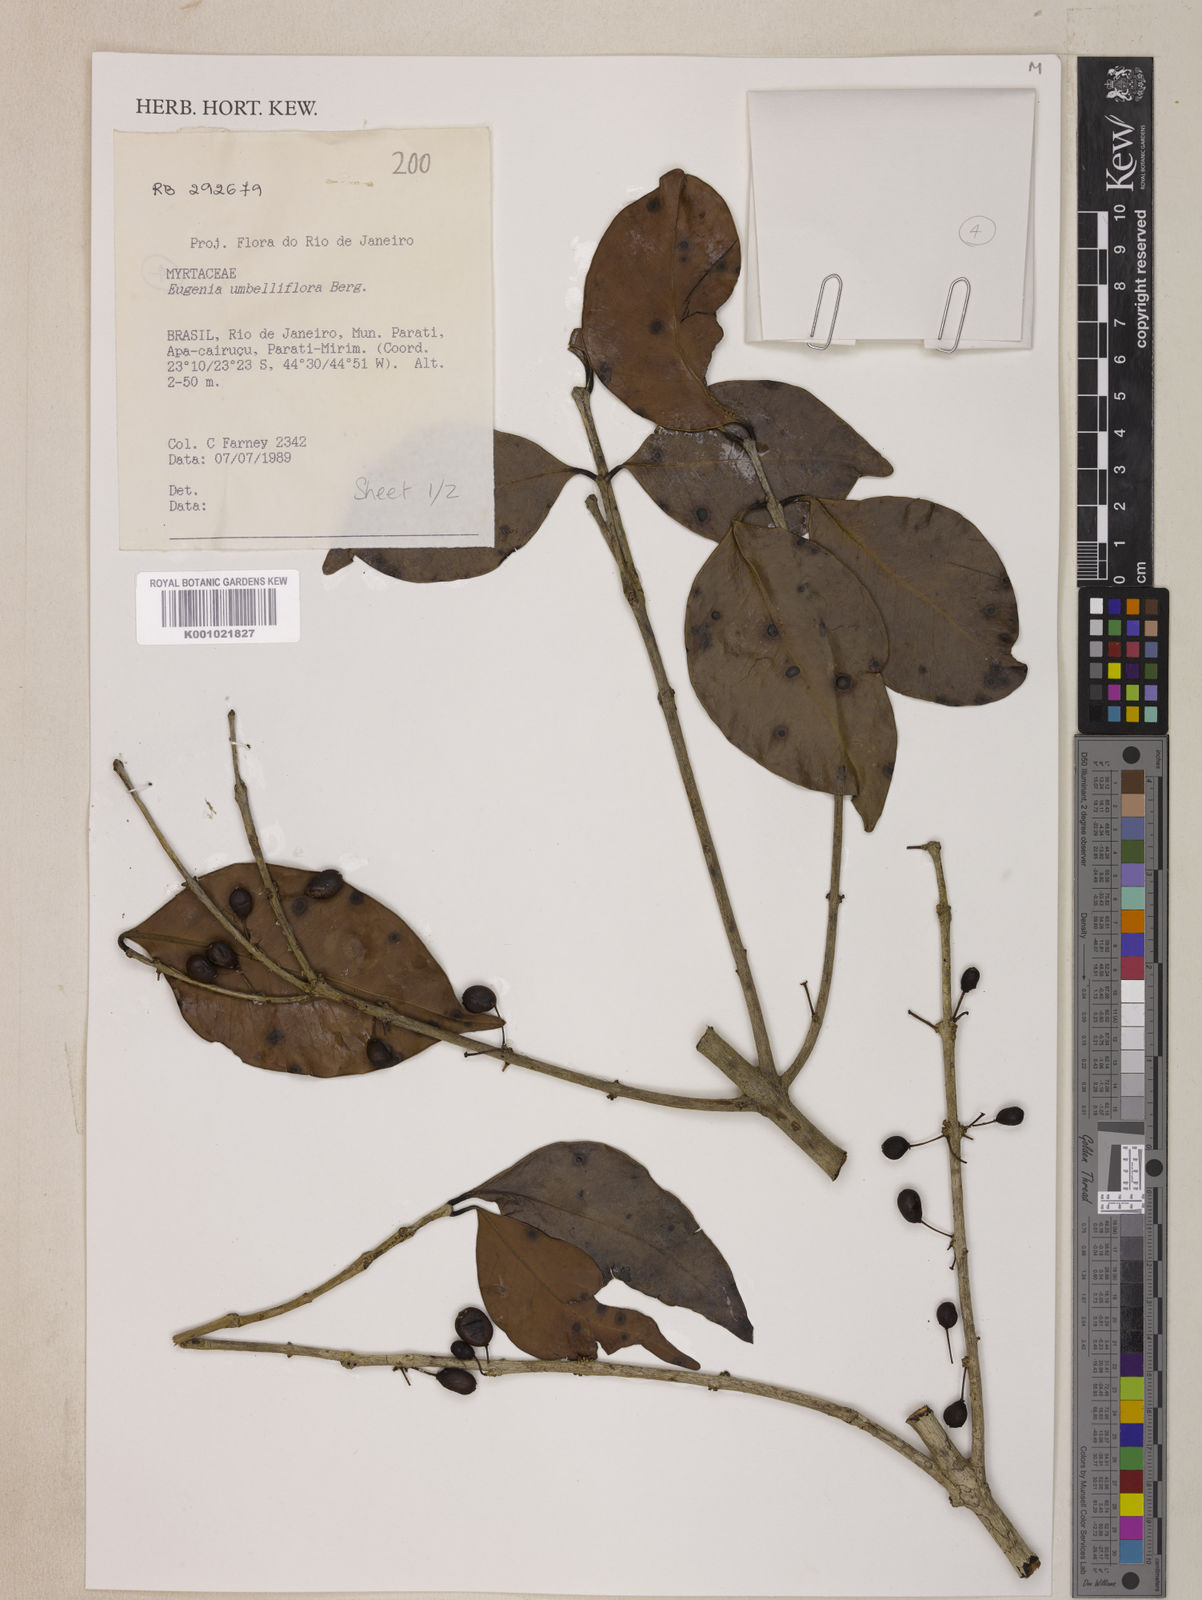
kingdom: Plantae
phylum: Tracheophyta
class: Magnoliopsida
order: Myrtales
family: Myrtaceae
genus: Eugenia
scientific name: Eugenia astringens
